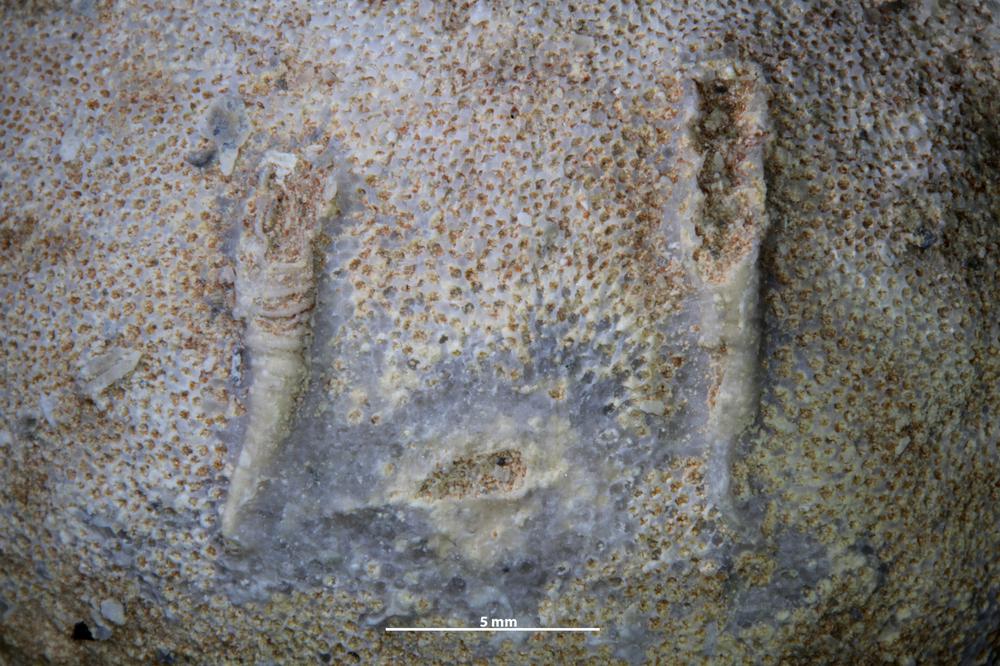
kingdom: Animalia
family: Cornulitidae
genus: Cornulites
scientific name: Cornulites
